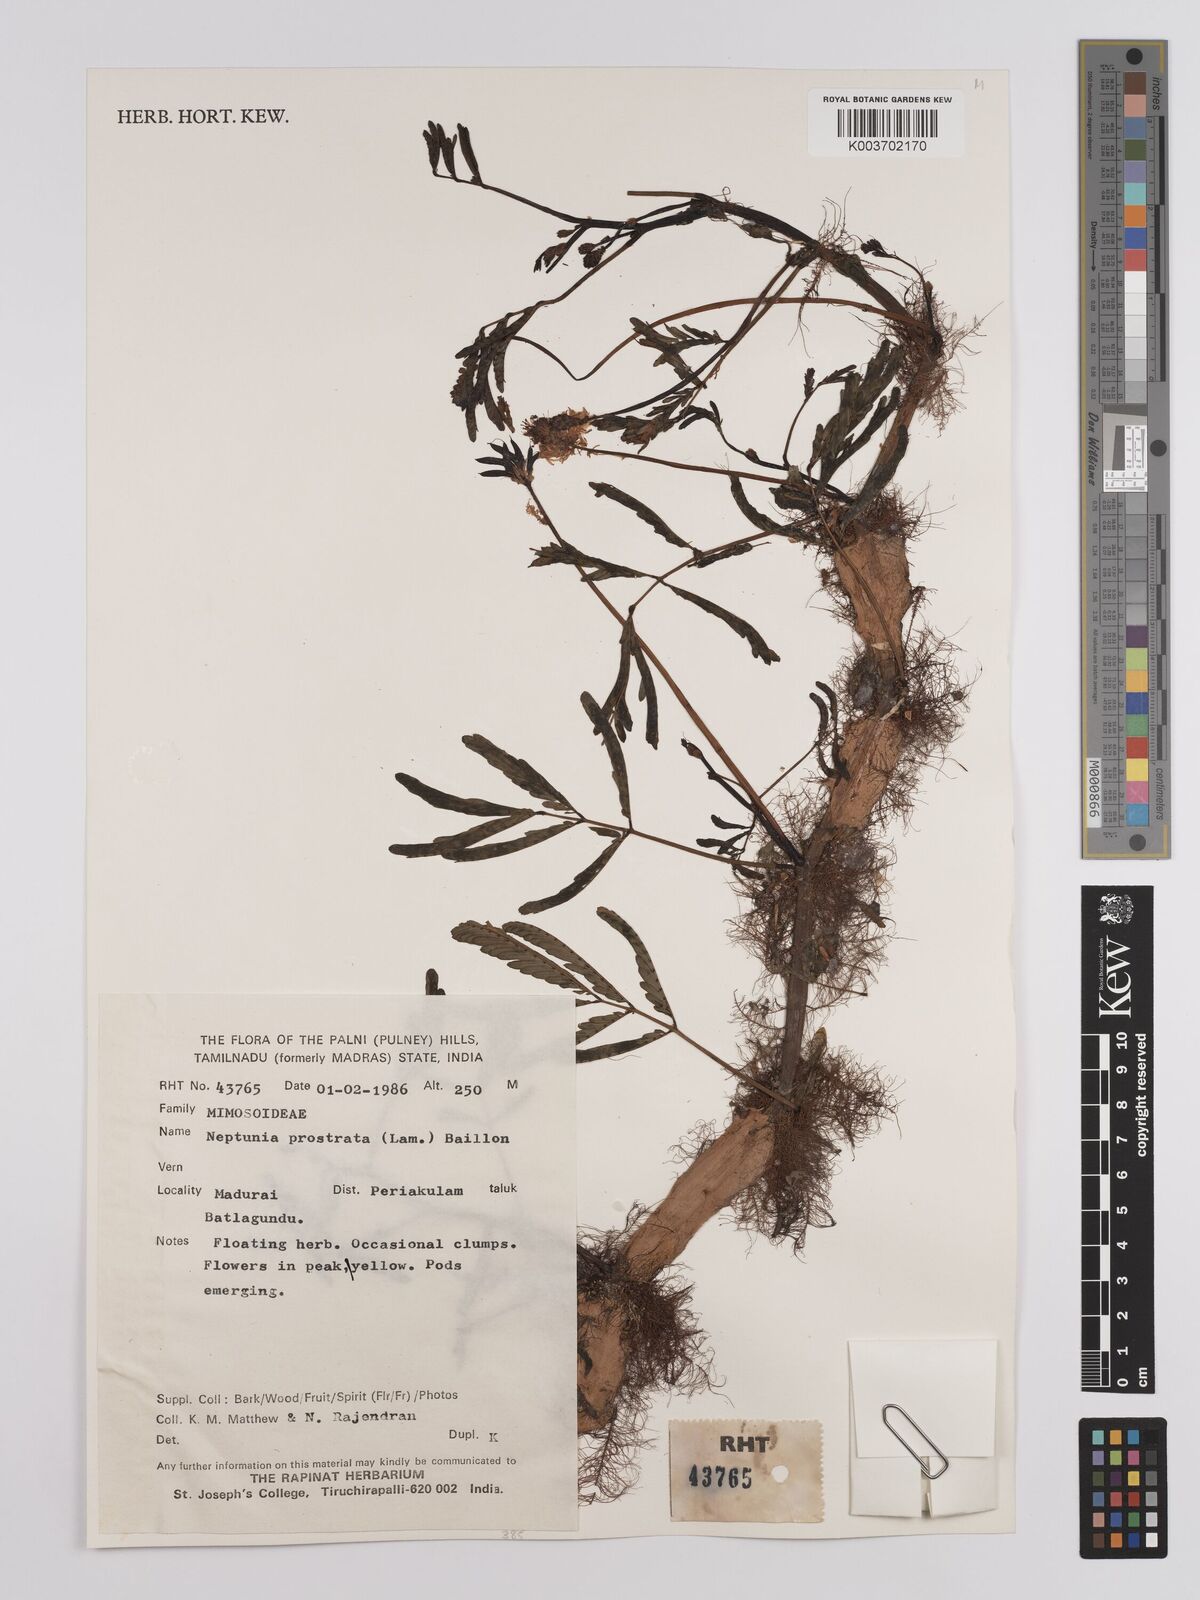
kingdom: Plantae
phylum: Tracheophyta
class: Magnoliopsida
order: Fabales
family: Fabaceae
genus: Neptunia
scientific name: Neptunia prostrata
